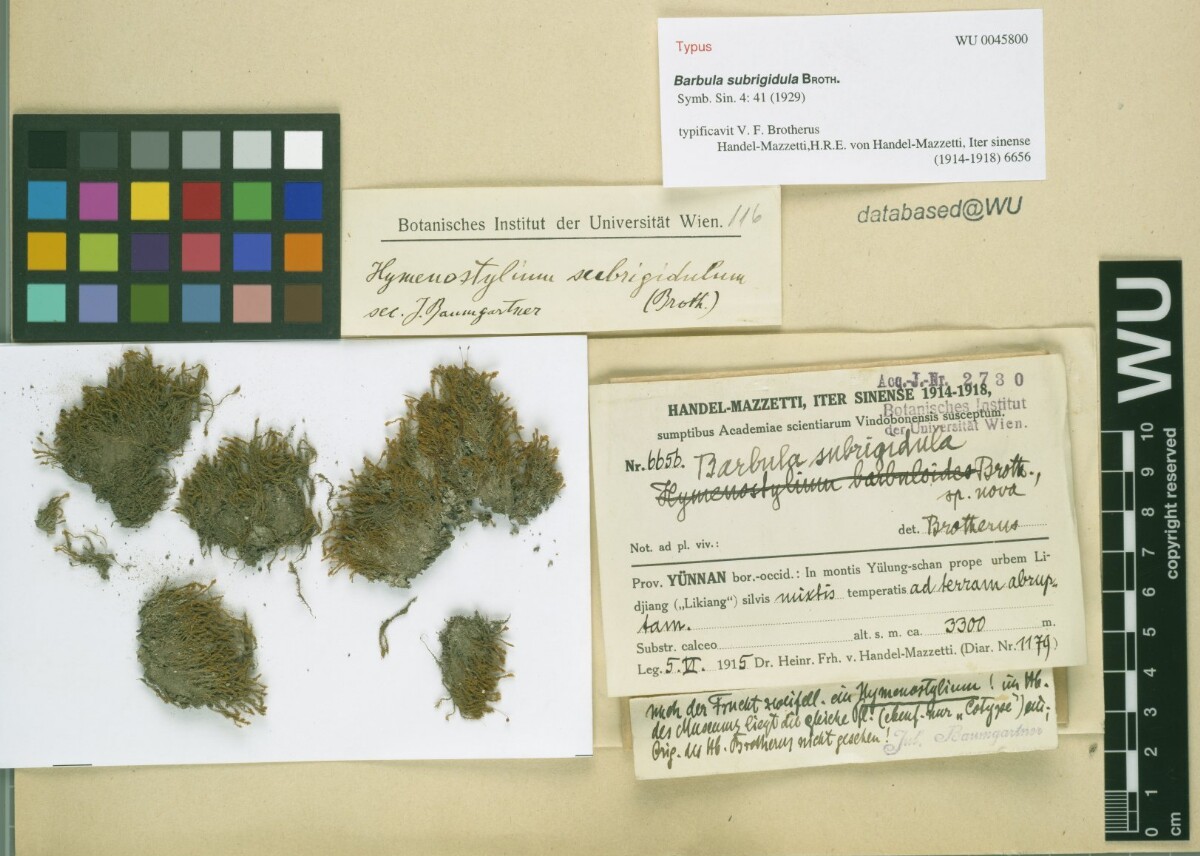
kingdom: Plantae
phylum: Bryophyta
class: Bryopsida
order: Pottiales
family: Pottiaceae
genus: Hymenostylium
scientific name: Hymenostylium annotinum
